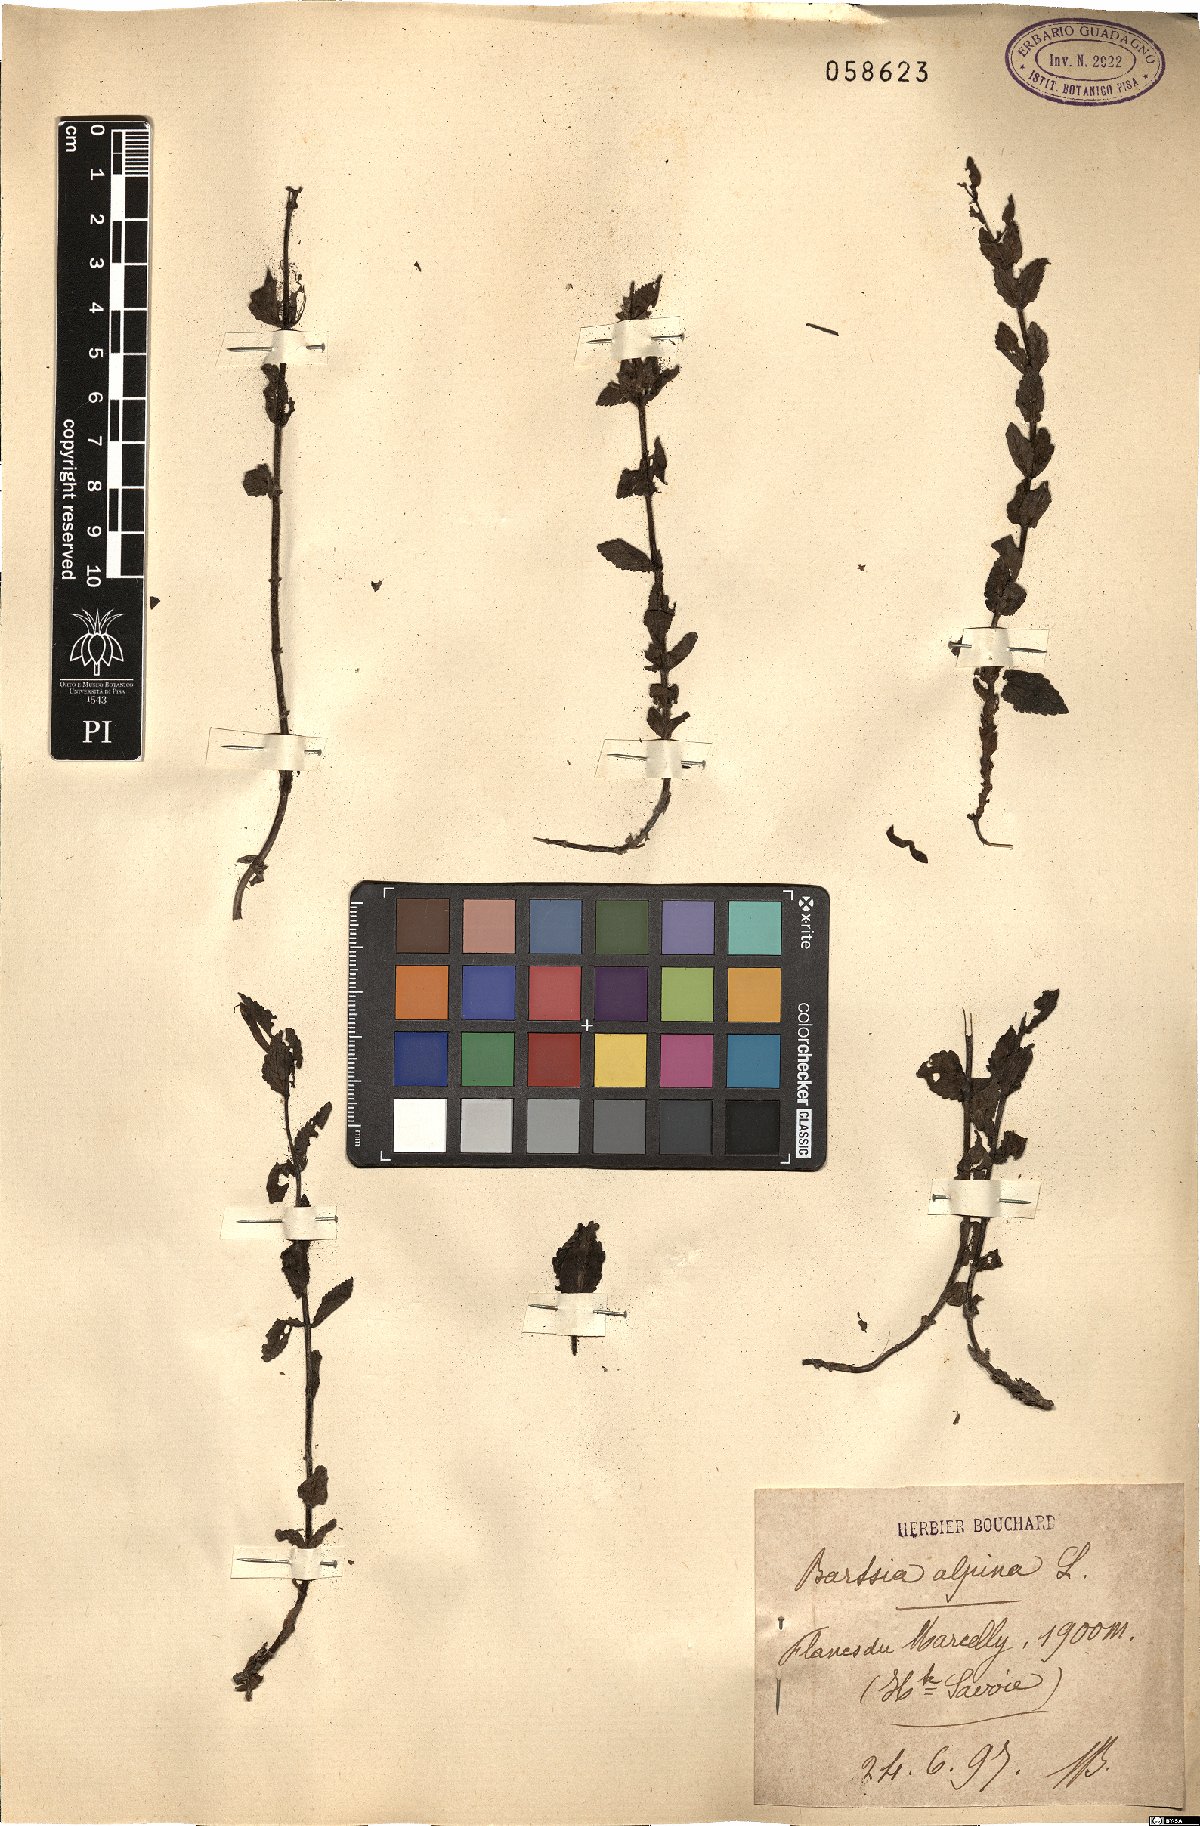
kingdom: Plantae
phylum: Tracheophyta
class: Magnoliopsida
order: Lamiales
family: Orobanchaceae
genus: Bartsia
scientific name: Bartsia alpina
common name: Alpine bartsia
